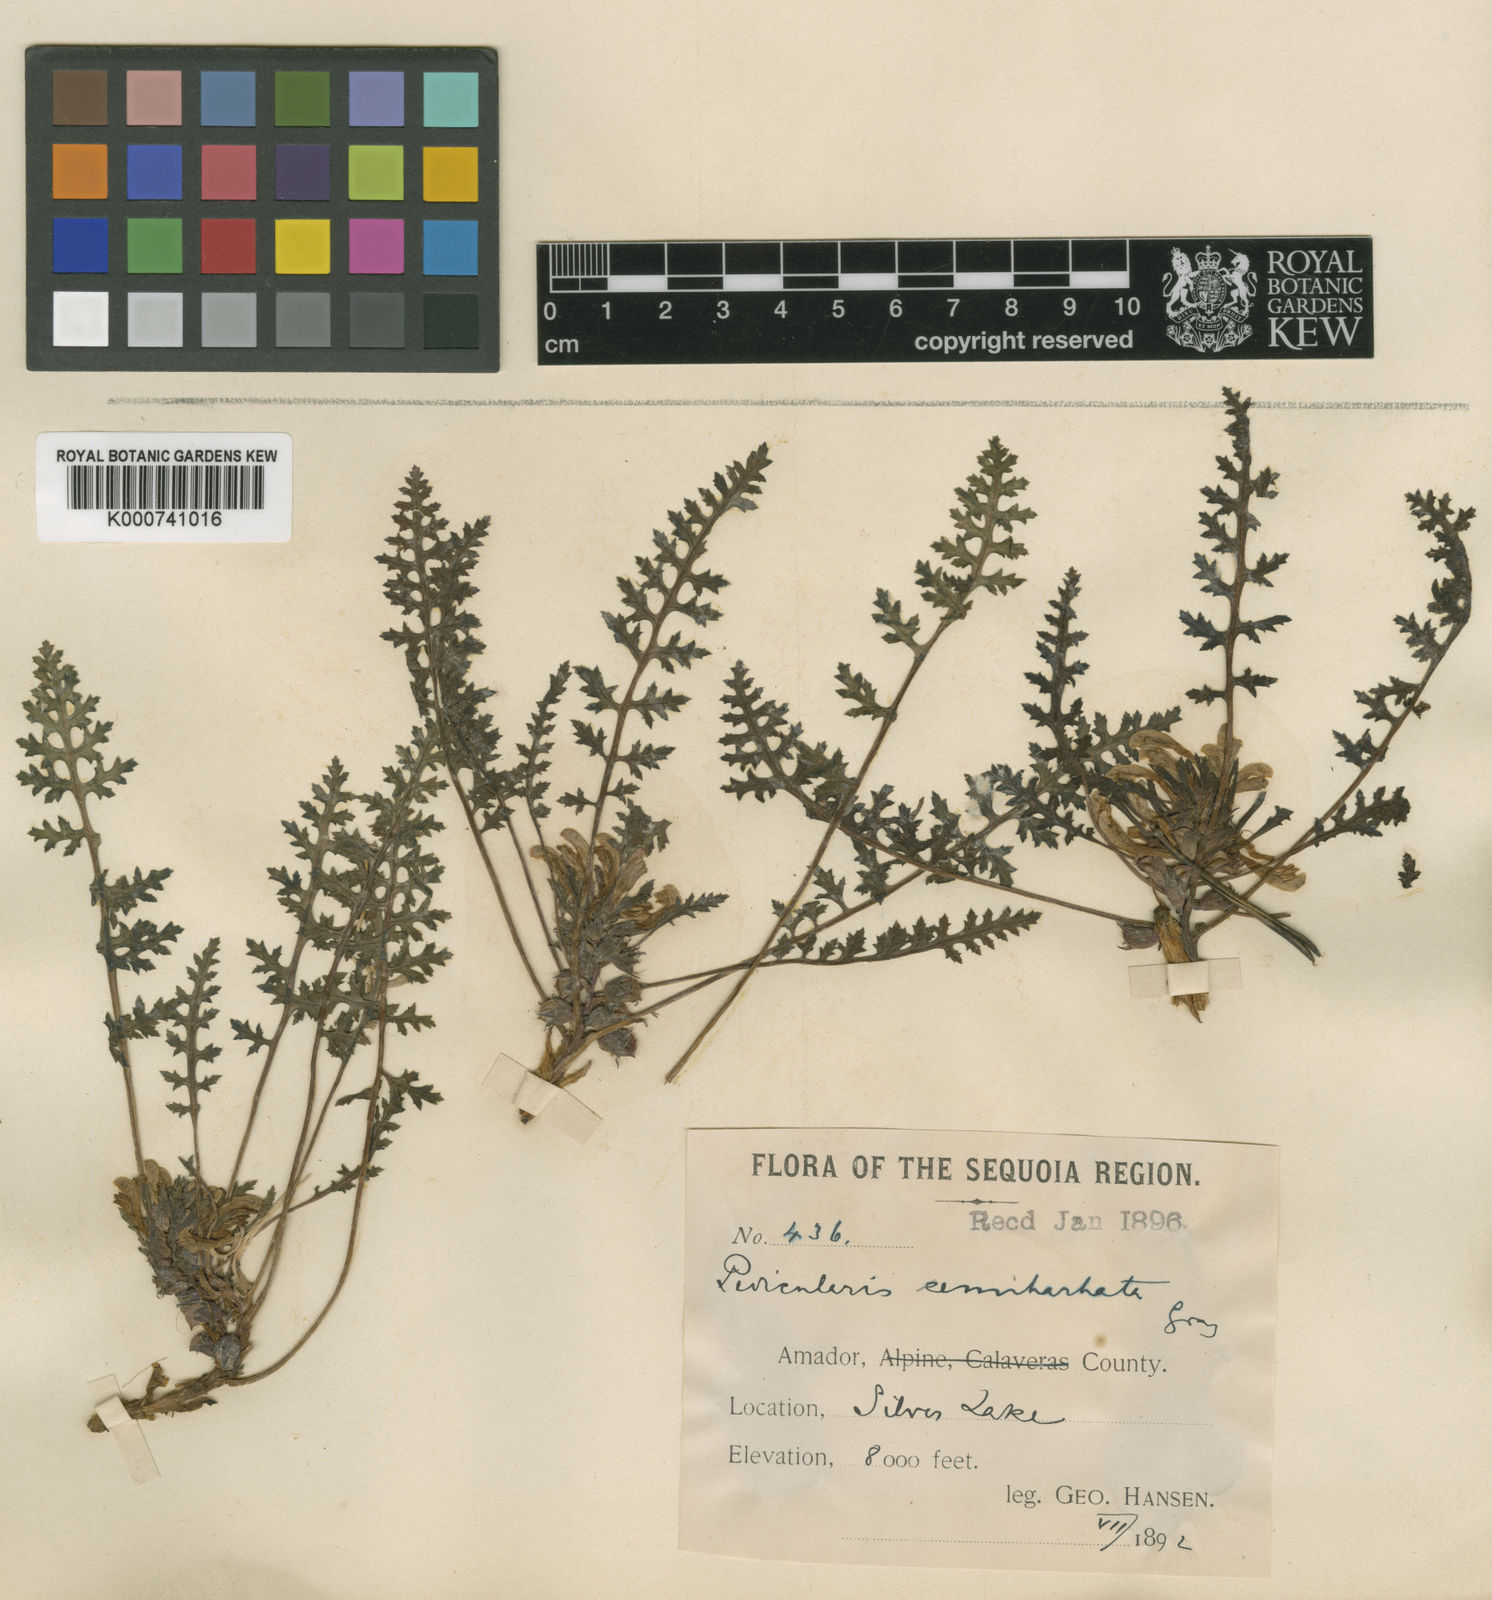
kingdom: Plantae
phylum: Tracheophyta
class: Magnoliopsida
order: Lamiales
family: Orobanchaceae
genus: Pedicularis
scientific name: Pedicularis semibarbata
